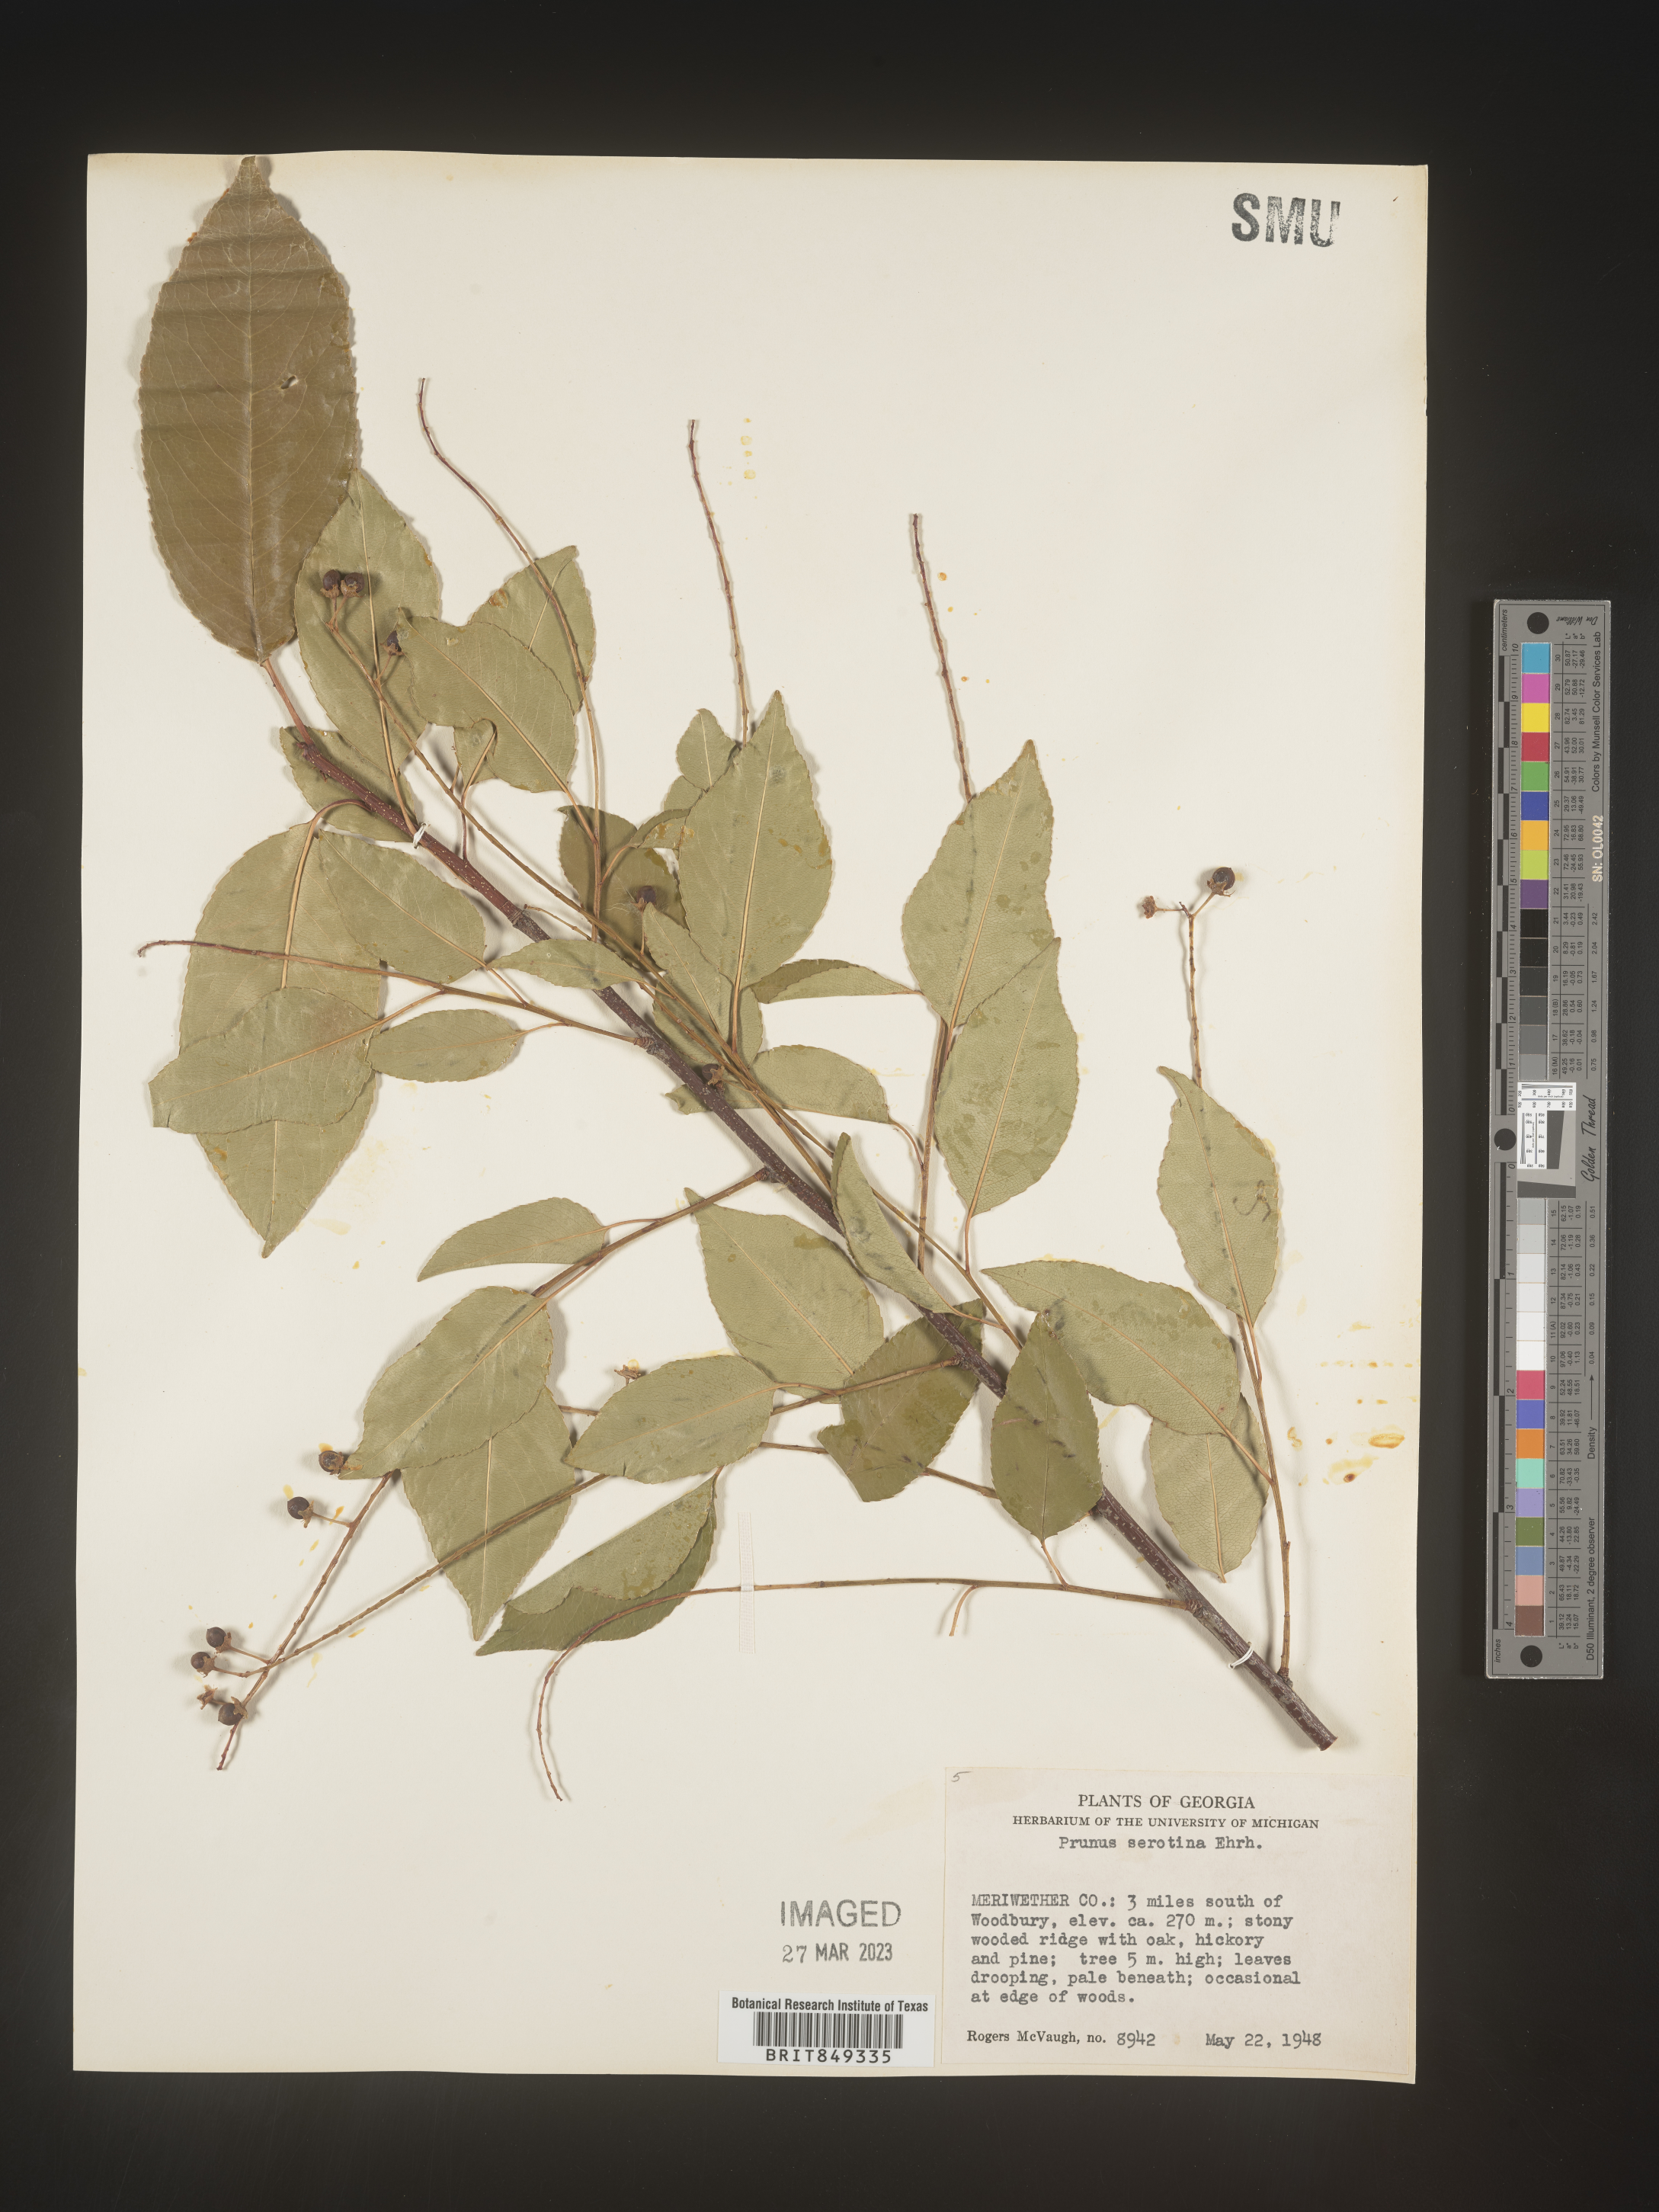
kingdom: Plantae
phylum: Tracheophyta
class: Magnoliopsida
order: Rosales
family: Rosaceae
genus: Prunus
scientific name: Prunus serotina
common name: Black cherry
